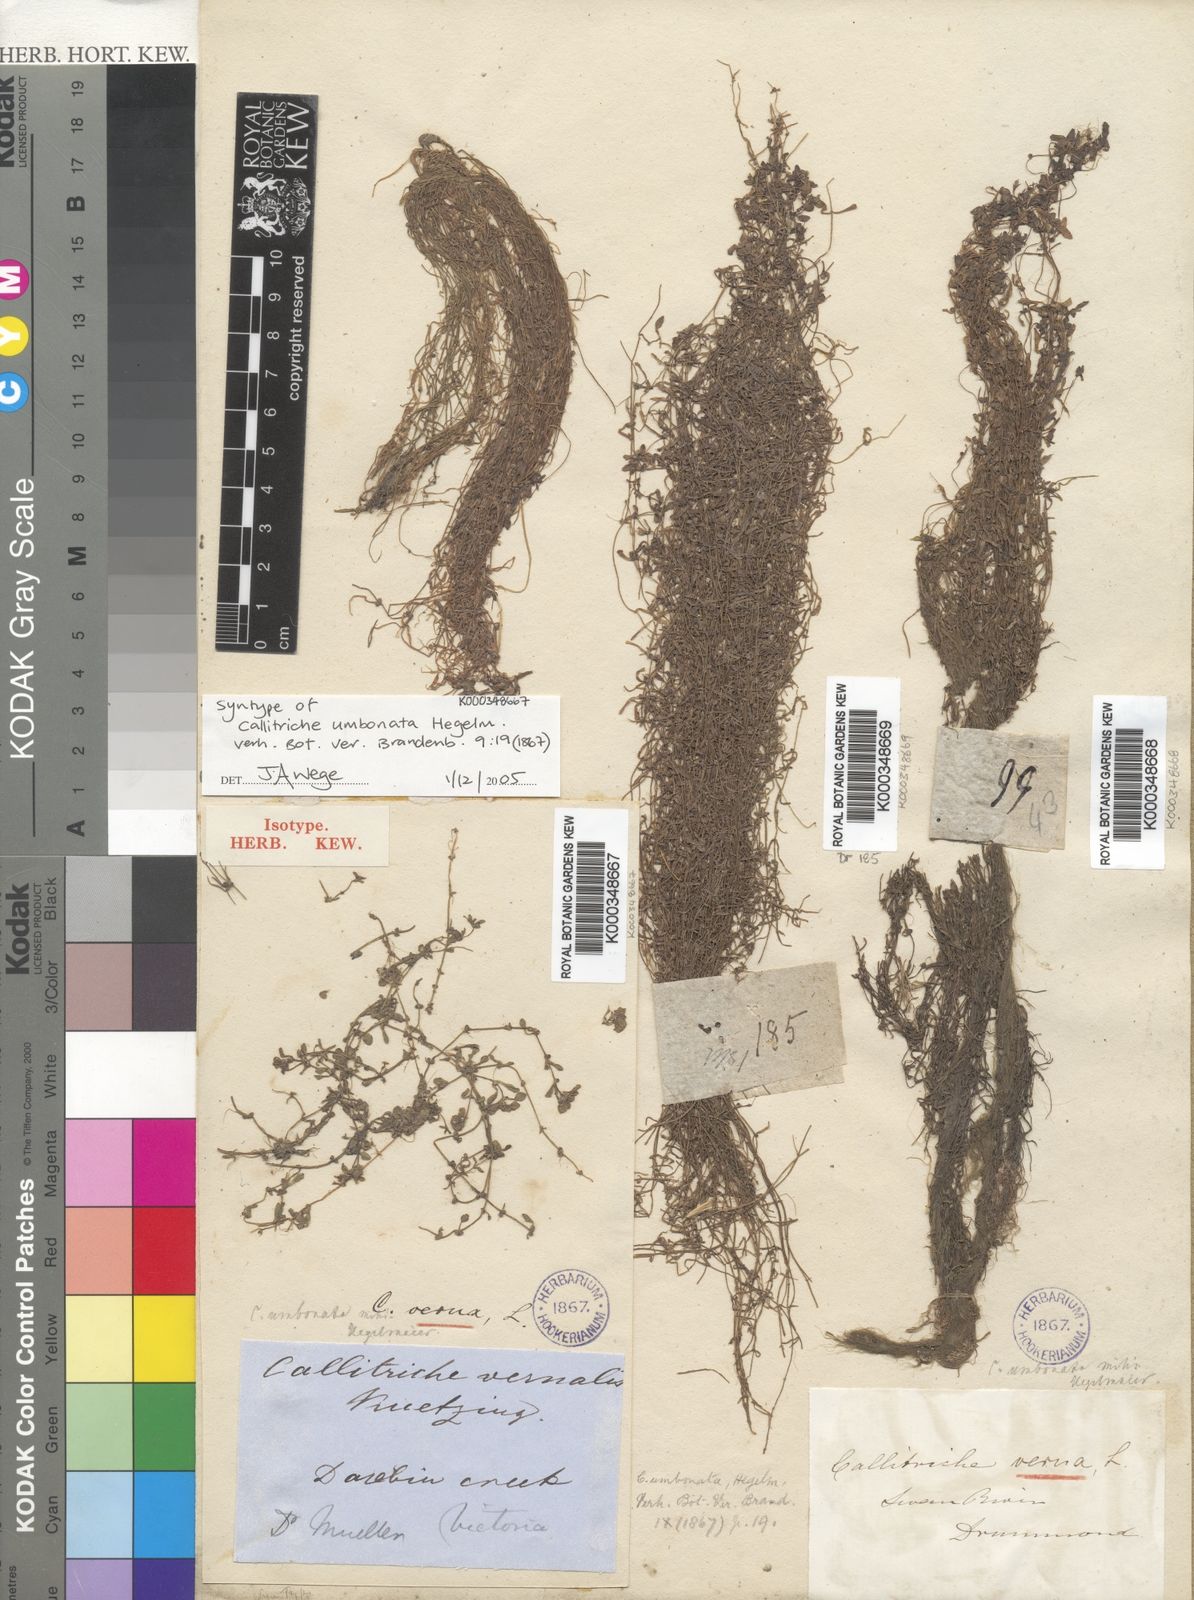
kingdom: Plantae
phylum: Tracheophyta
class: Magnoliopsida
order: Lamiales
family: Plantaginaceae
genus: Callitriche
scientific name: Callitriche palustris
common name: Spring water-starwort
